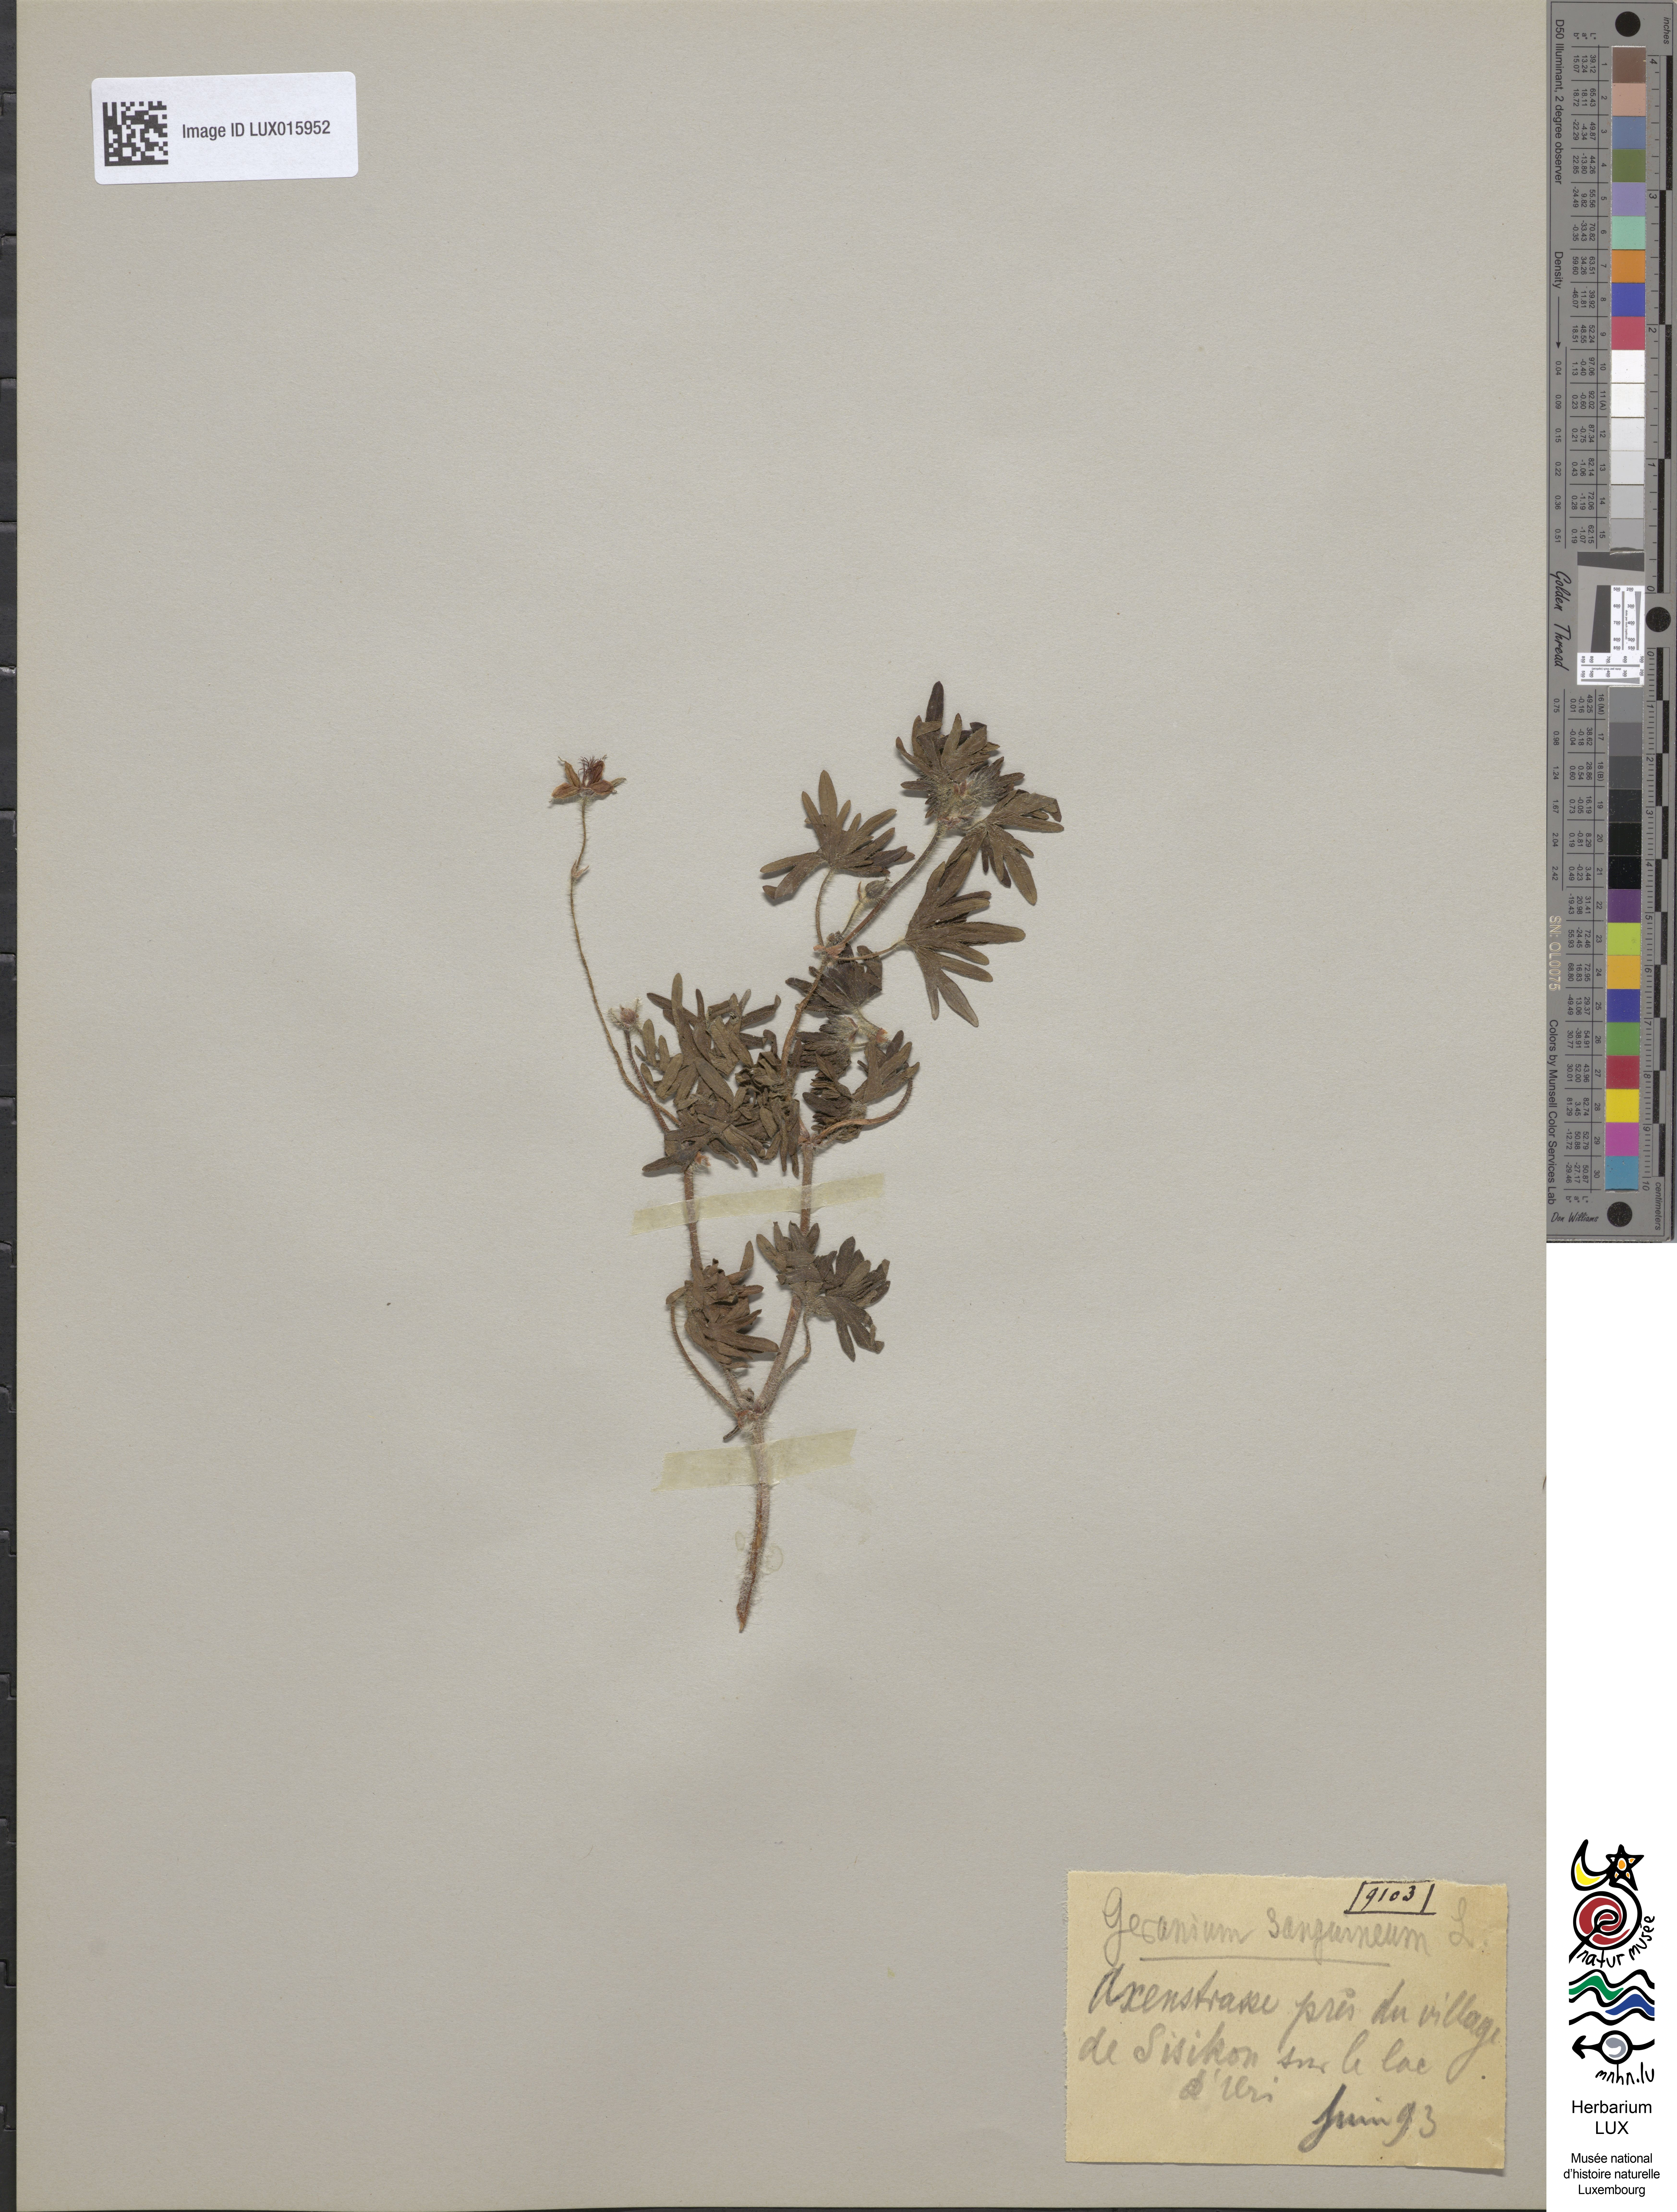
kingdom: Plantae
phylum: Tracheophyta
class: Magnoliopsida
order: Geraniales
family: Geraniaceae
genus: Geranium
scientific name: Geranium sanguineum
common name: Bloody crane's-bill
